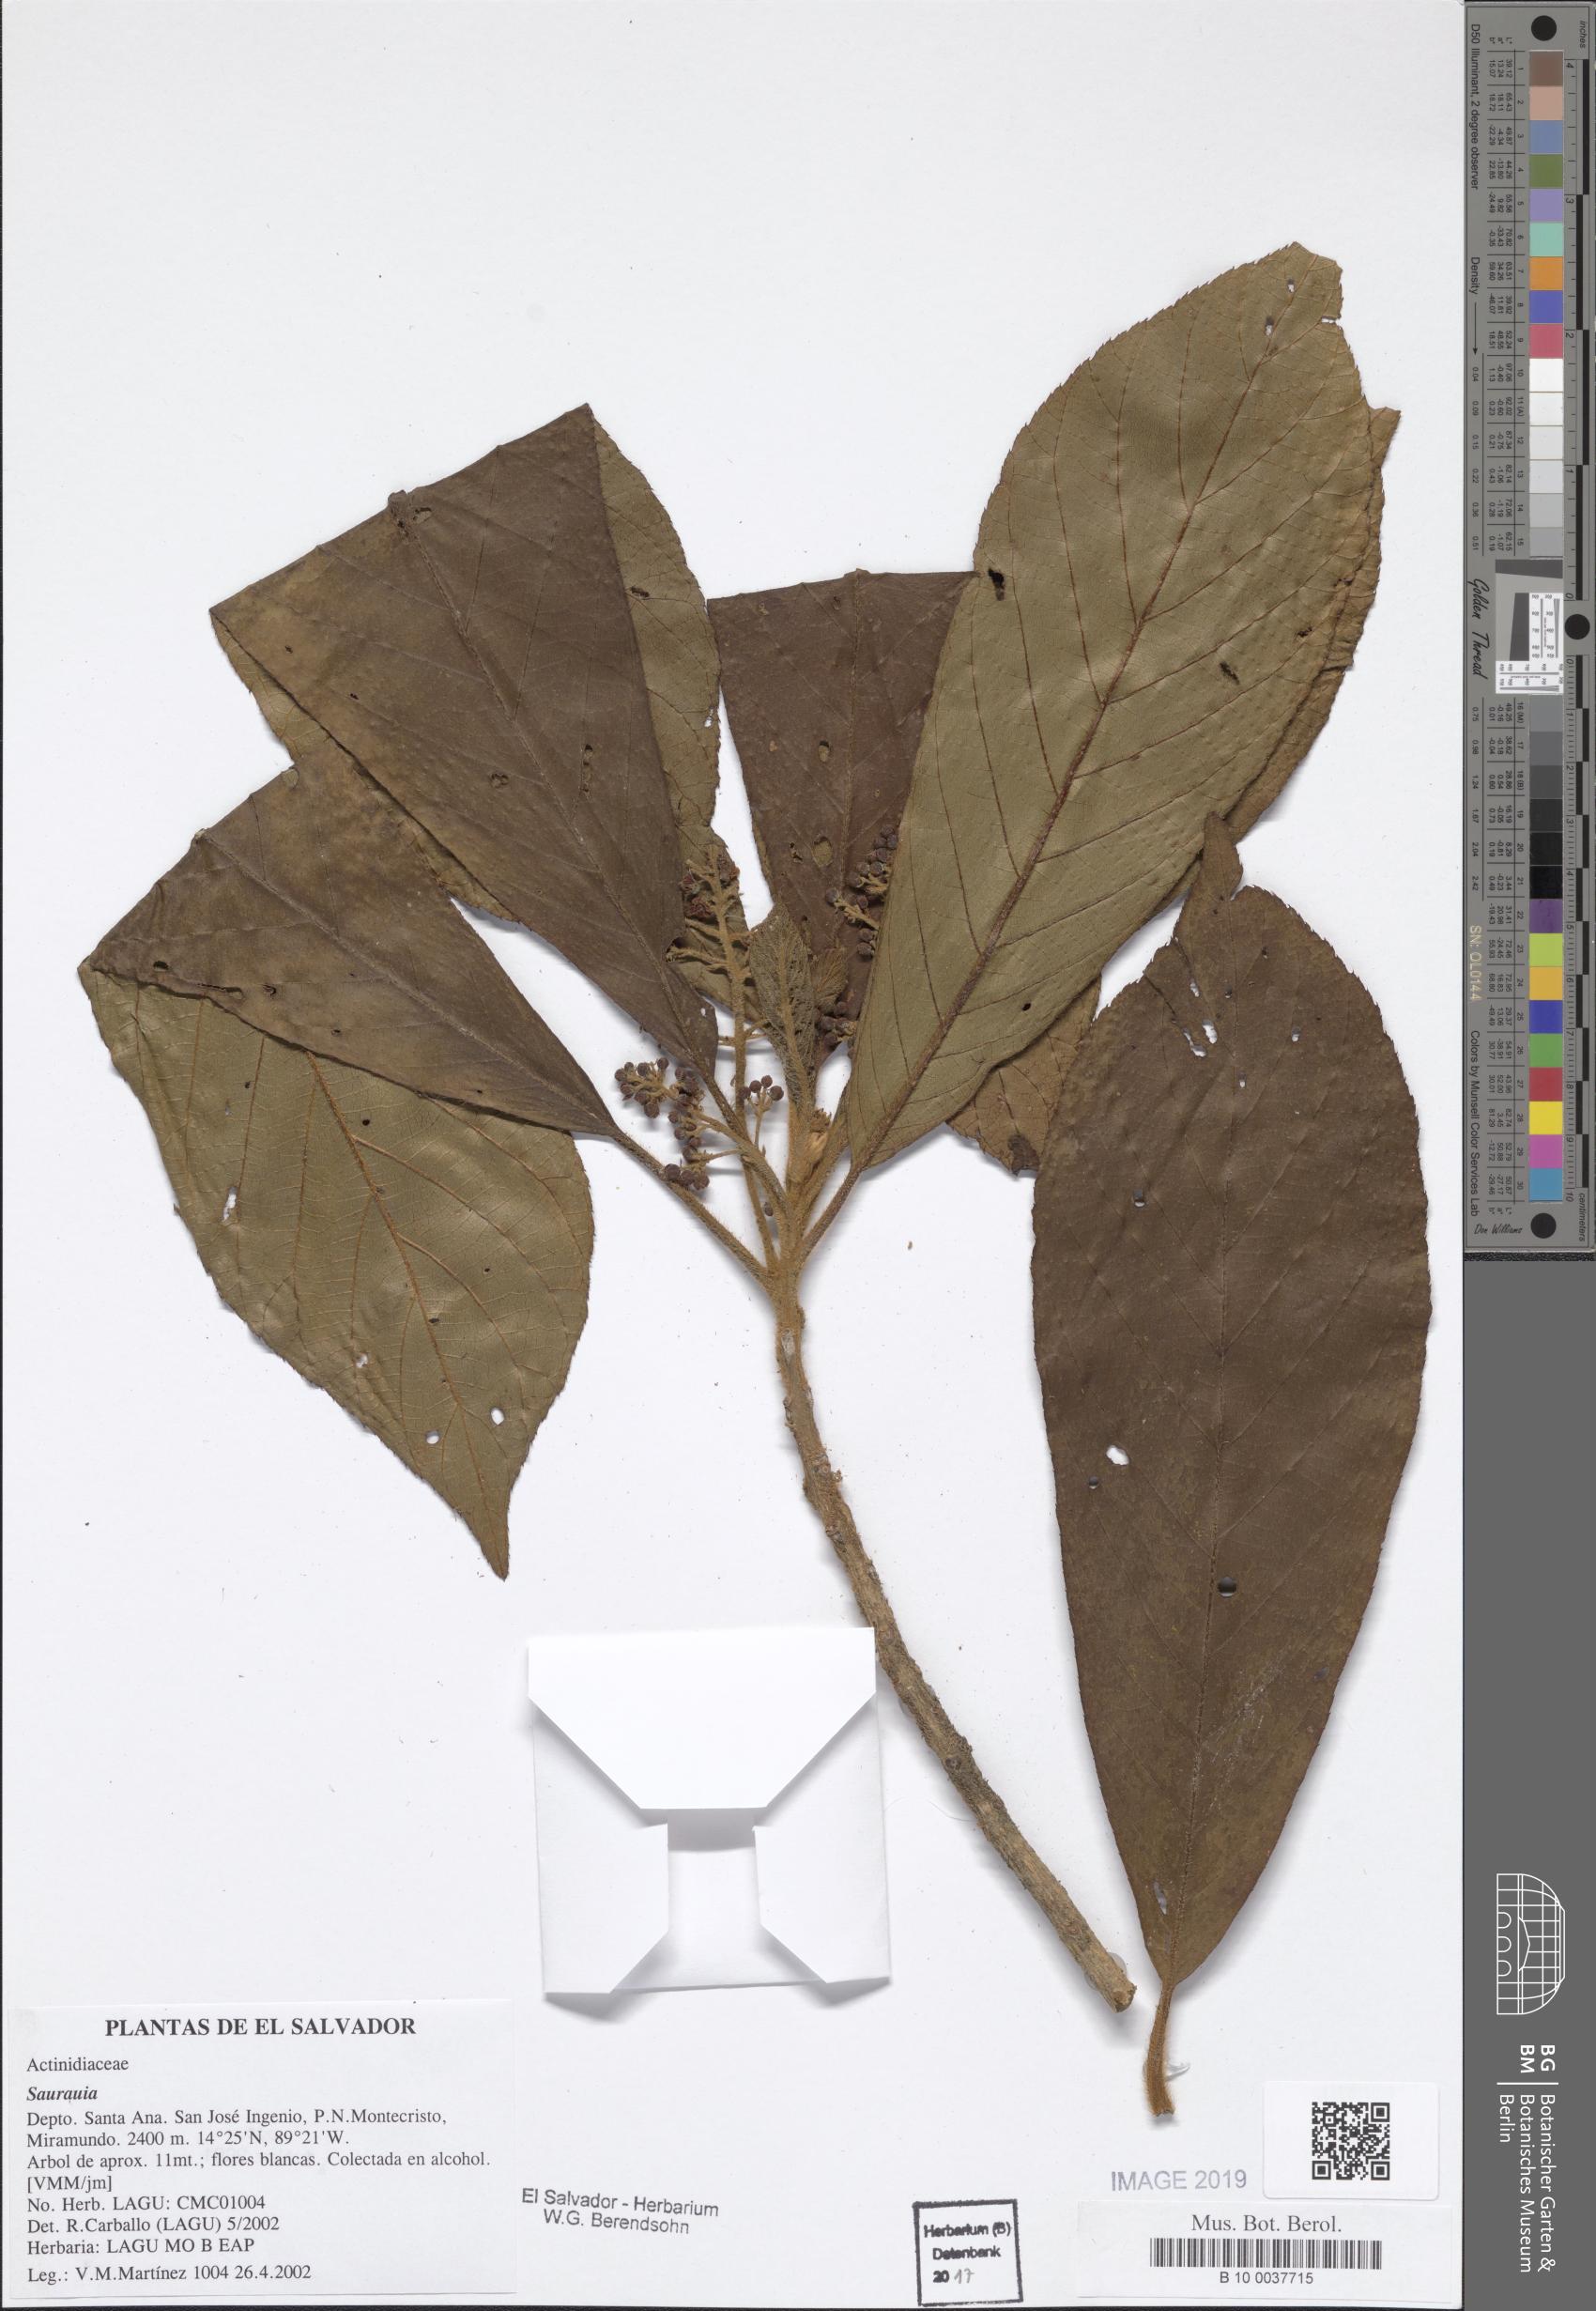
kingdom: Plantae
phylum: Tracheophyta
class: Magnoliopsida
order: Ericales
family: Actinidiaceae
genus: Saurauia
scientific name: Saurauia
